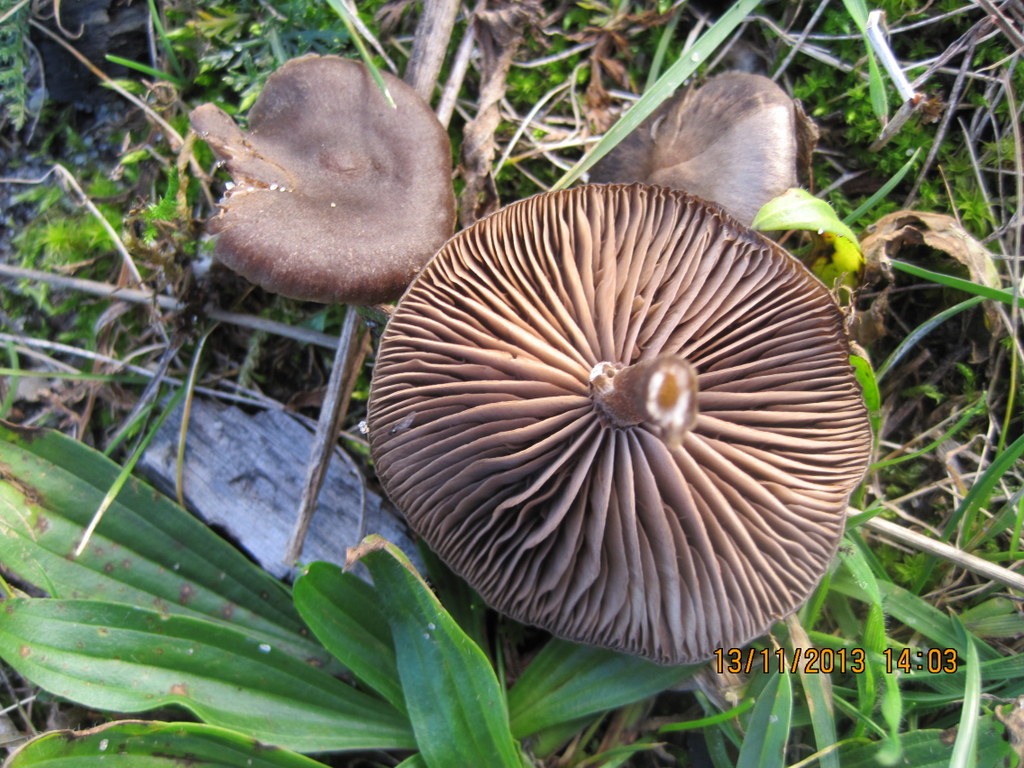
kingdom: Fungi
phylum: Basidiomycota
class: Agaricomycetes
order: Agaricales
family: Entolomataceae
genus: Entoloma
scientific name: Entoloma sericeum
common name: silkeglinsende rødblad
